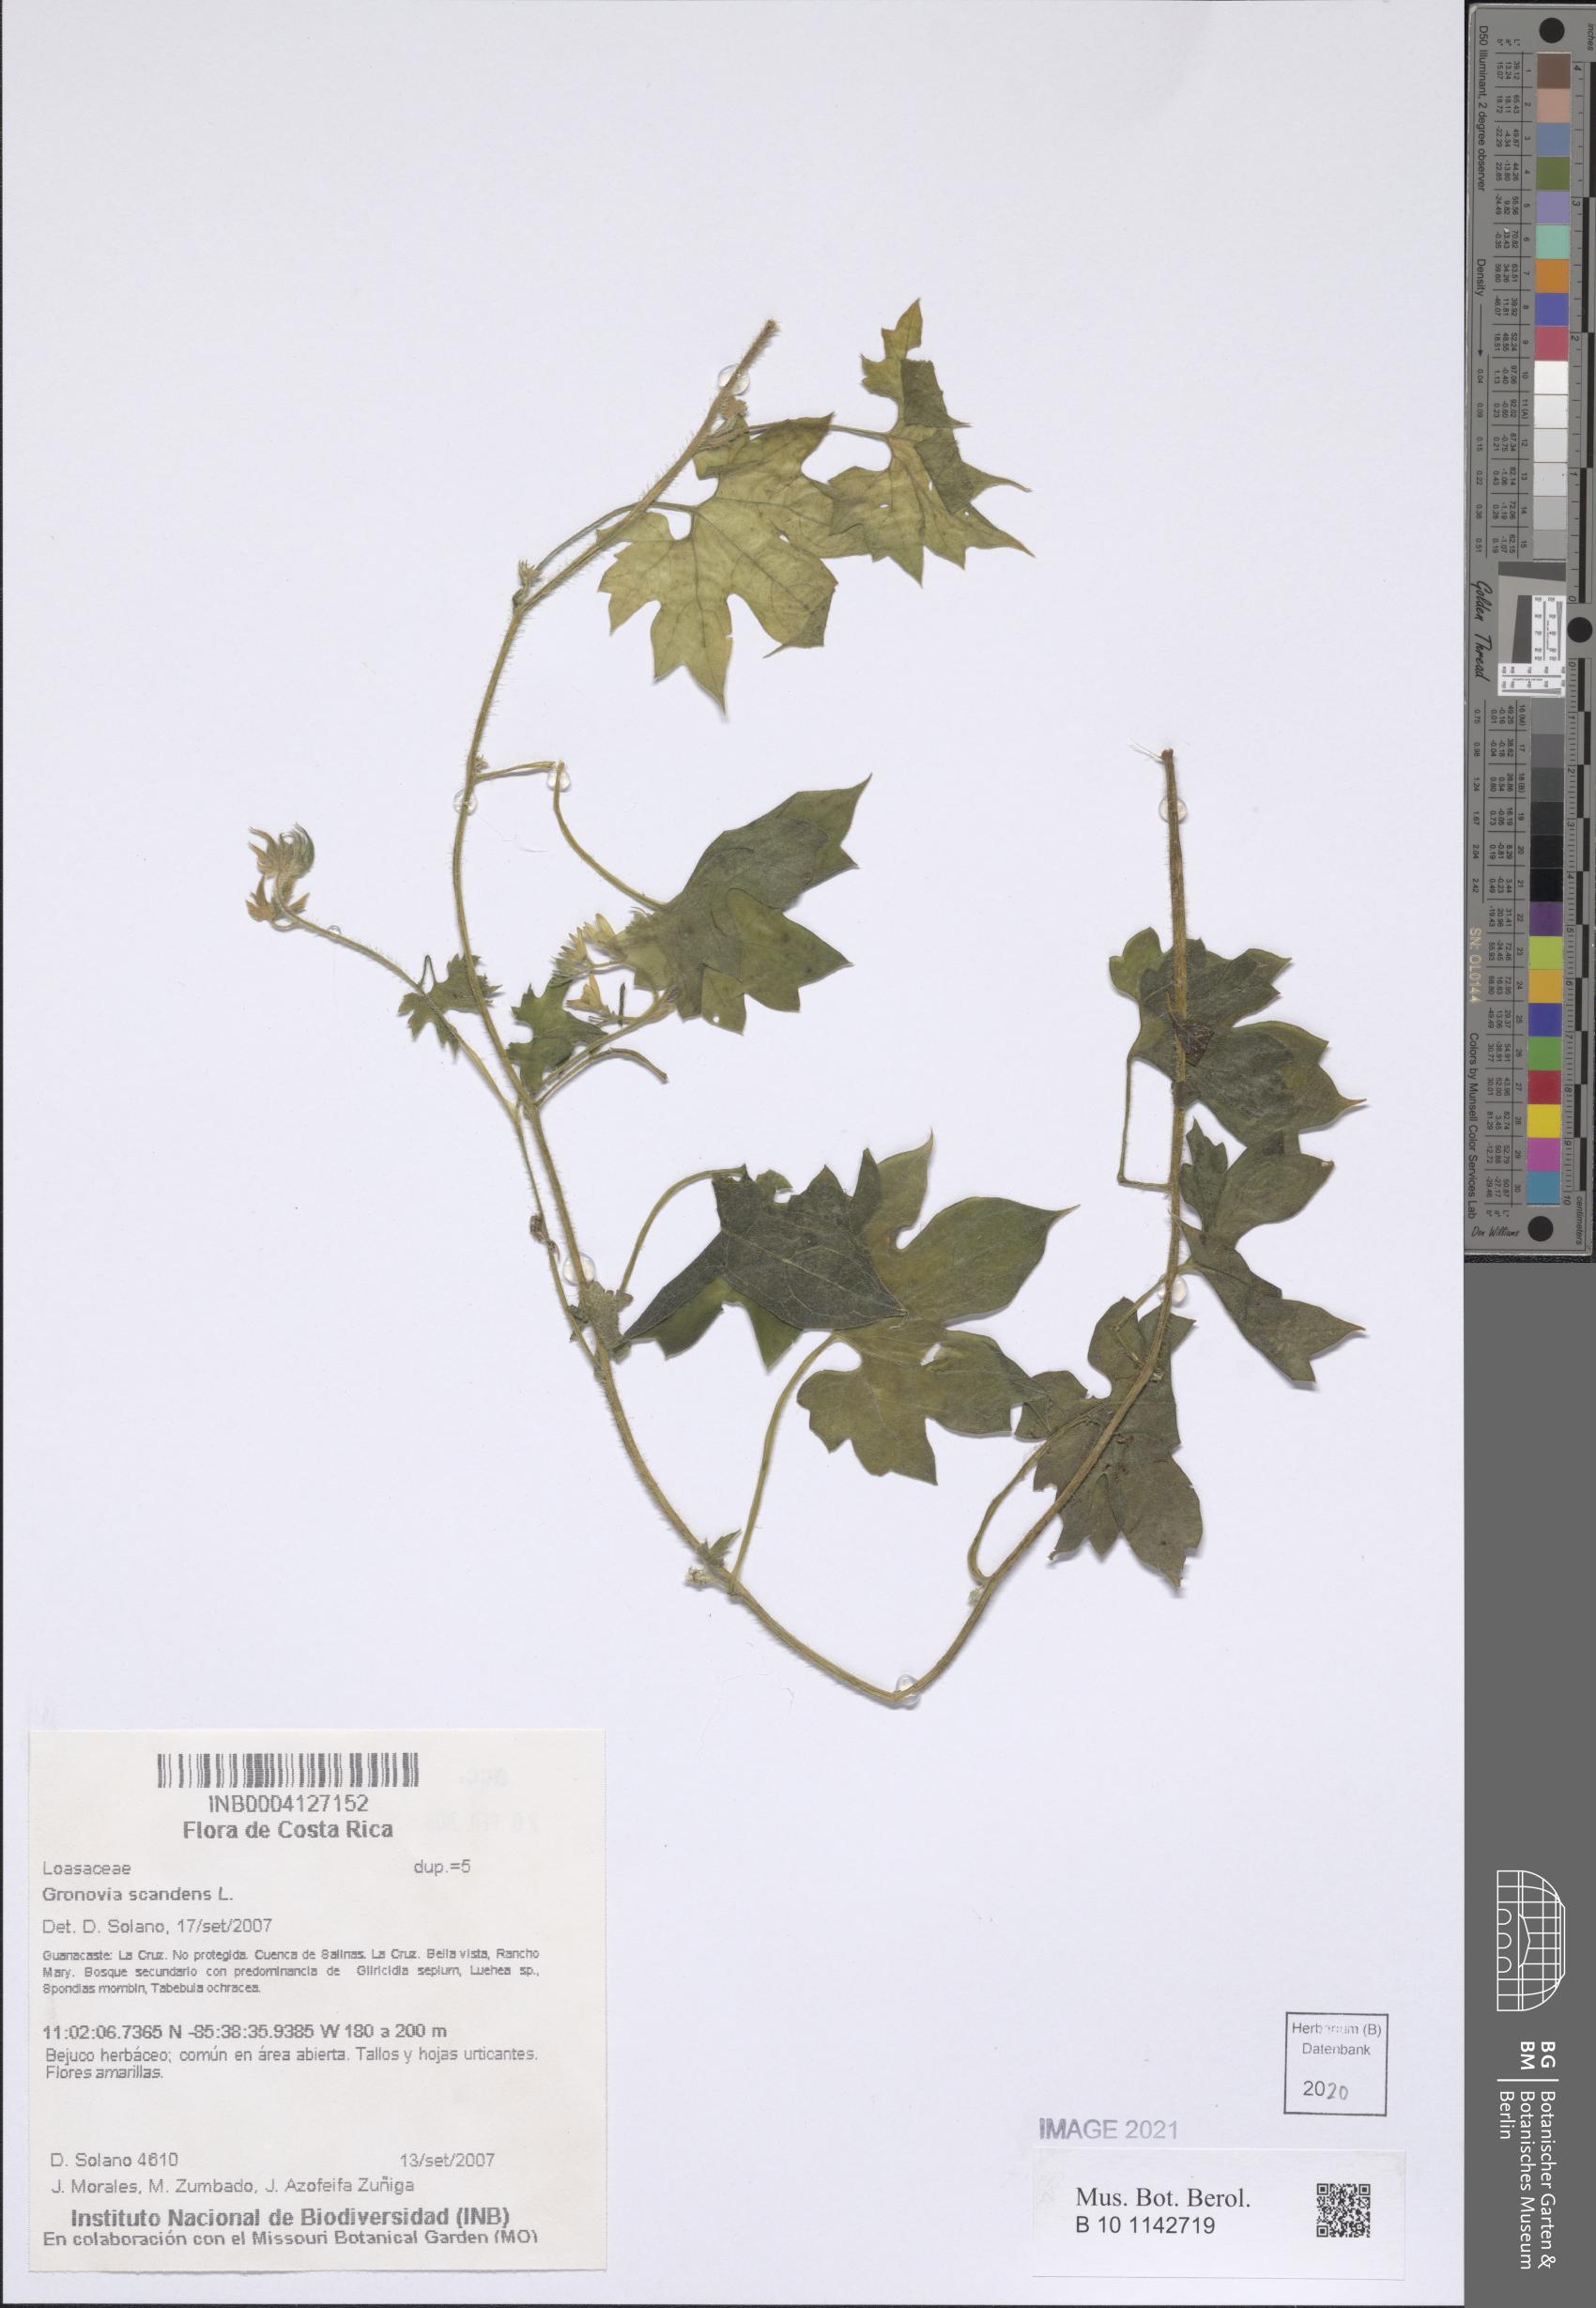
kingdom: Plantae
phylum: Tracheophyta
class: Magnoliopsida
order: Cornales
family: Loasaceae
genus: Gronovia
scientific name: Gronovia scandens
